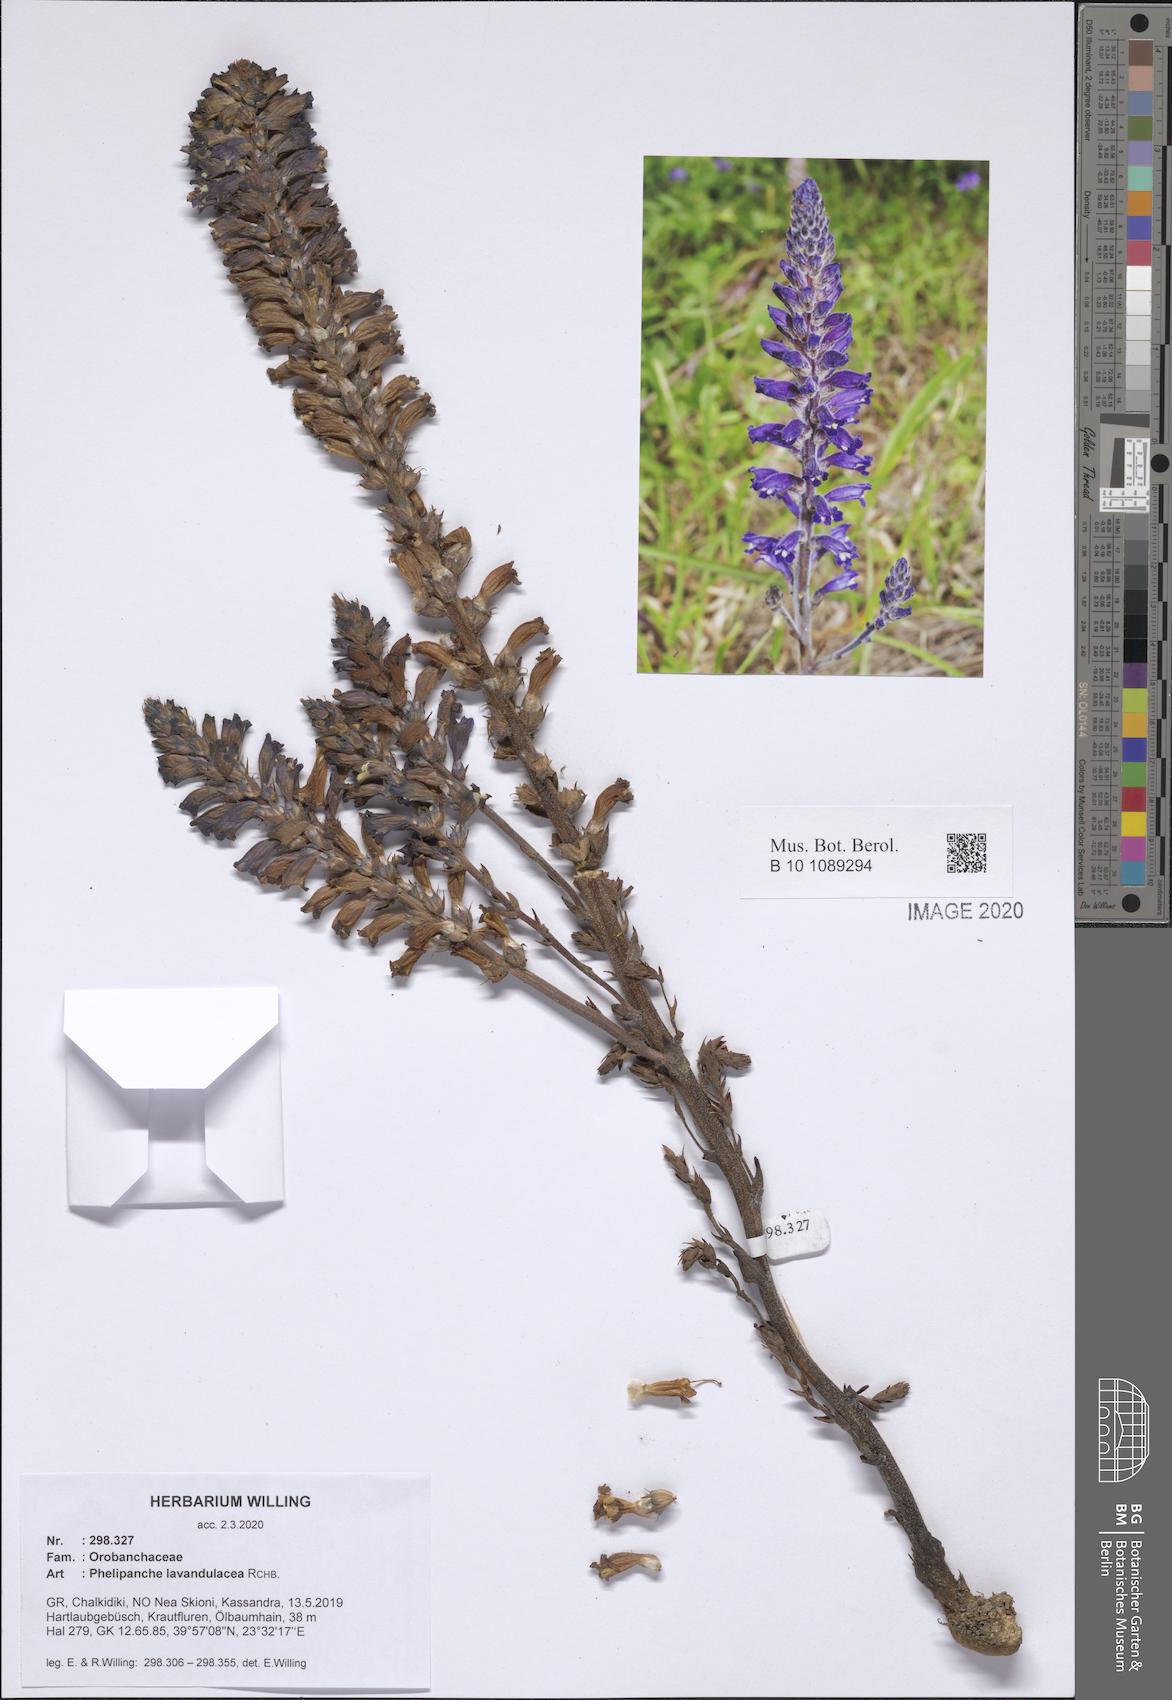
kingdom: Plantae
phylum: Tracheophyta
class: Magnoliopsida
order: Lamiales
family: Orobanchaceae
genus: Phelipanche
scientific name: Phelipanche lavandulacea
